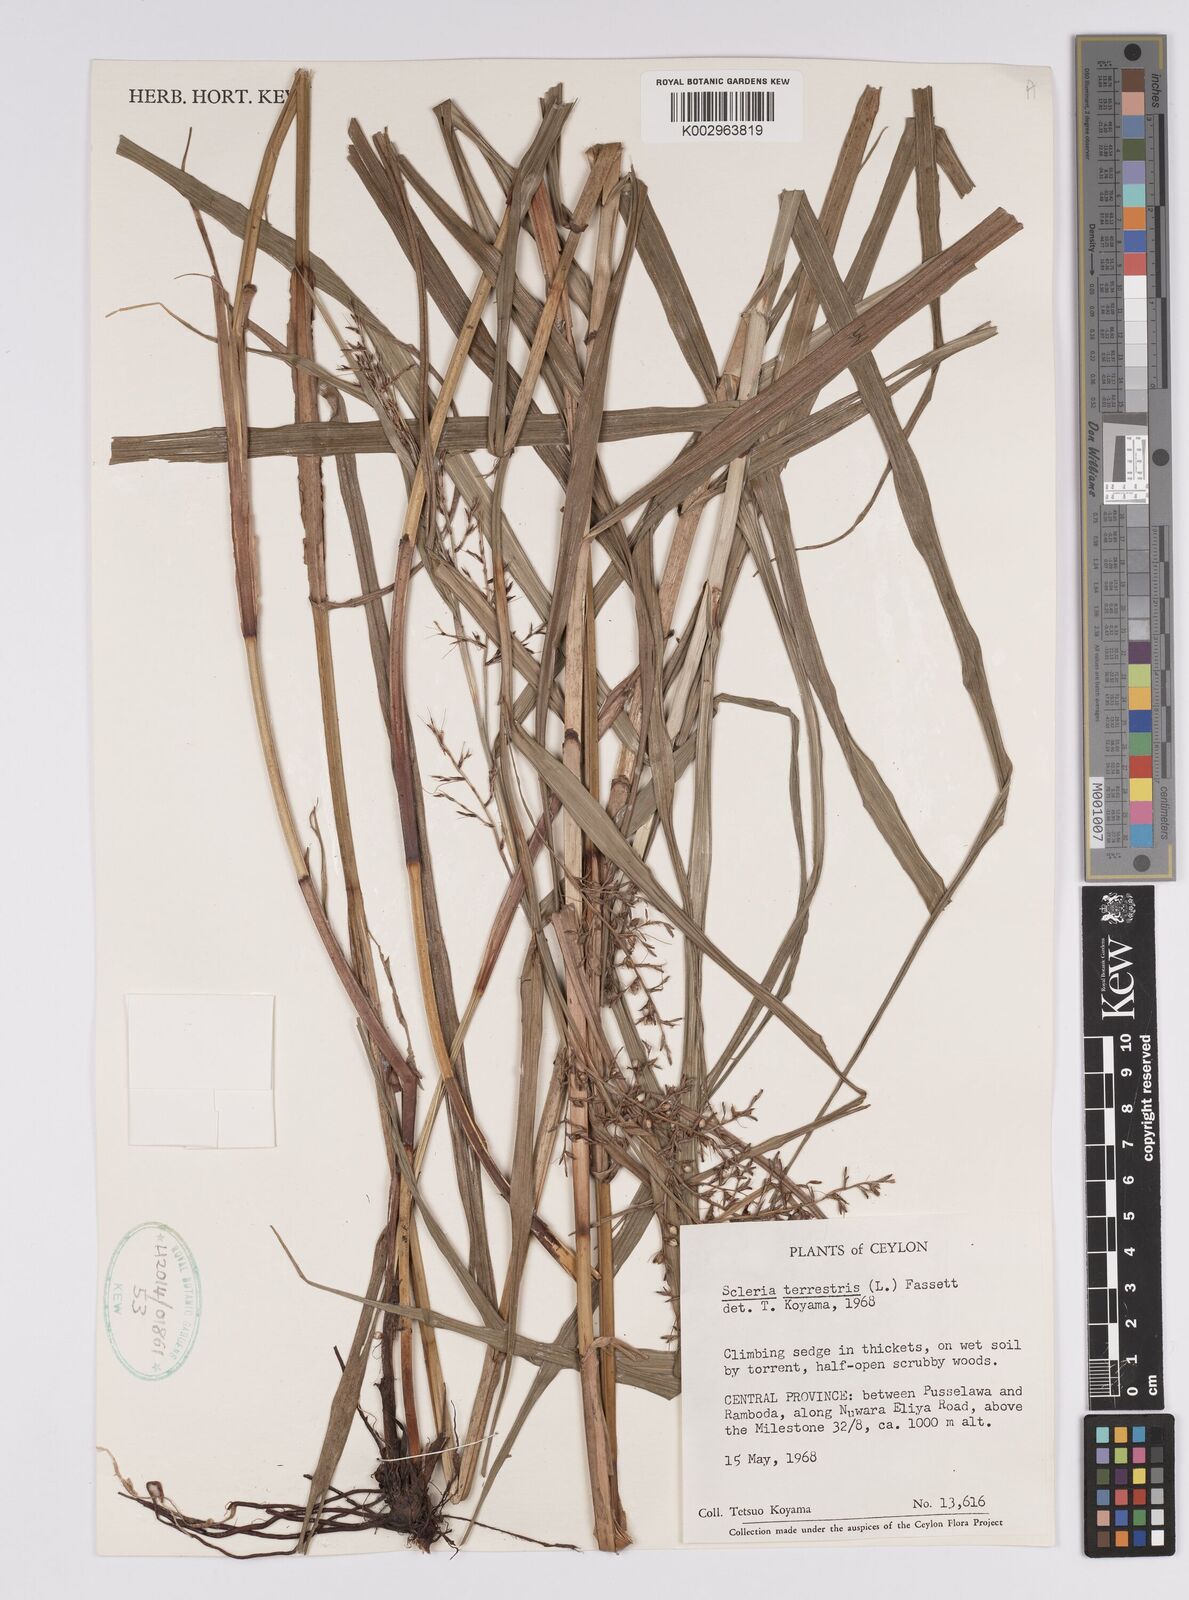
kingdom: Plantae
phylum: Tracheophyta
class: Liliopsida
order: Poales
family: Cyperaceae
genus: Scleria
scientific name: Scleria terrestris
